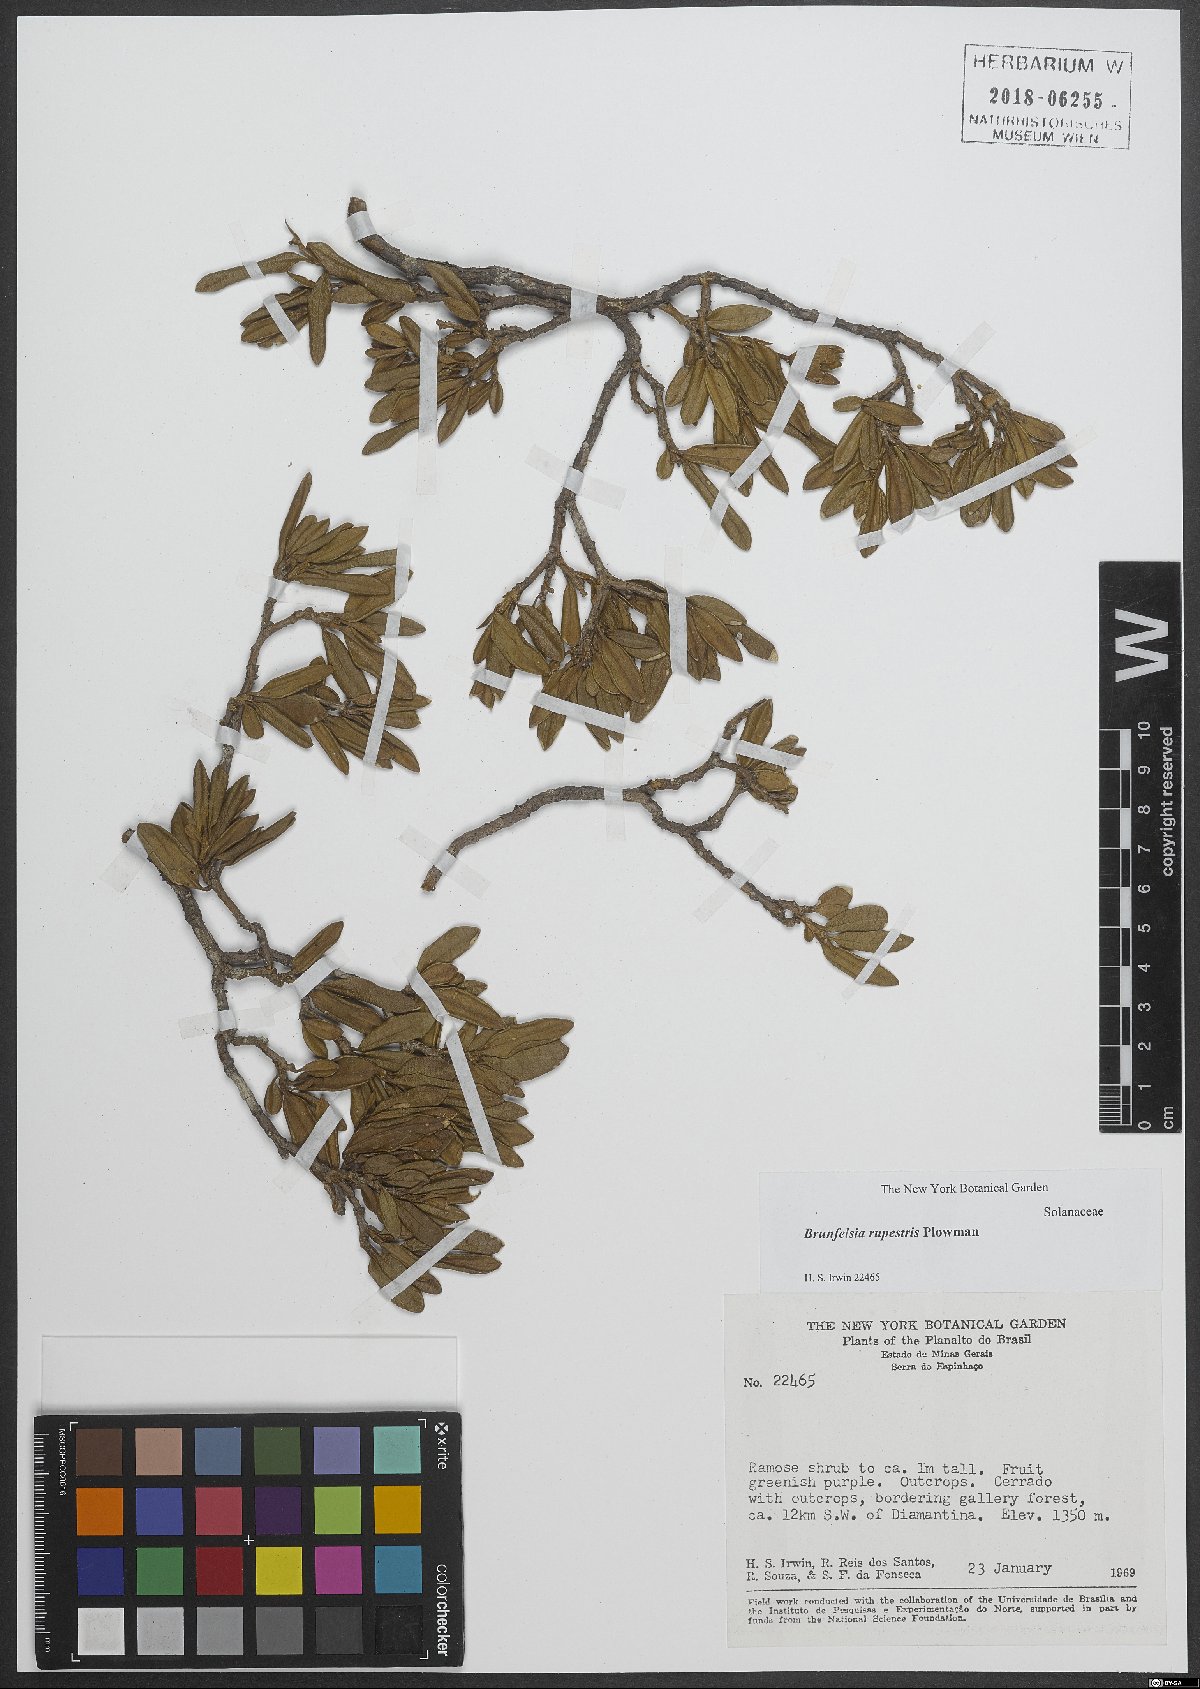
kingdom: Plantae
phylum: Tracheophyta
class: Magnoliopsida
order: Solanales
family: Solanaceae
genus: Brunfelsia
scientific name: Brunfelsia rupestris
